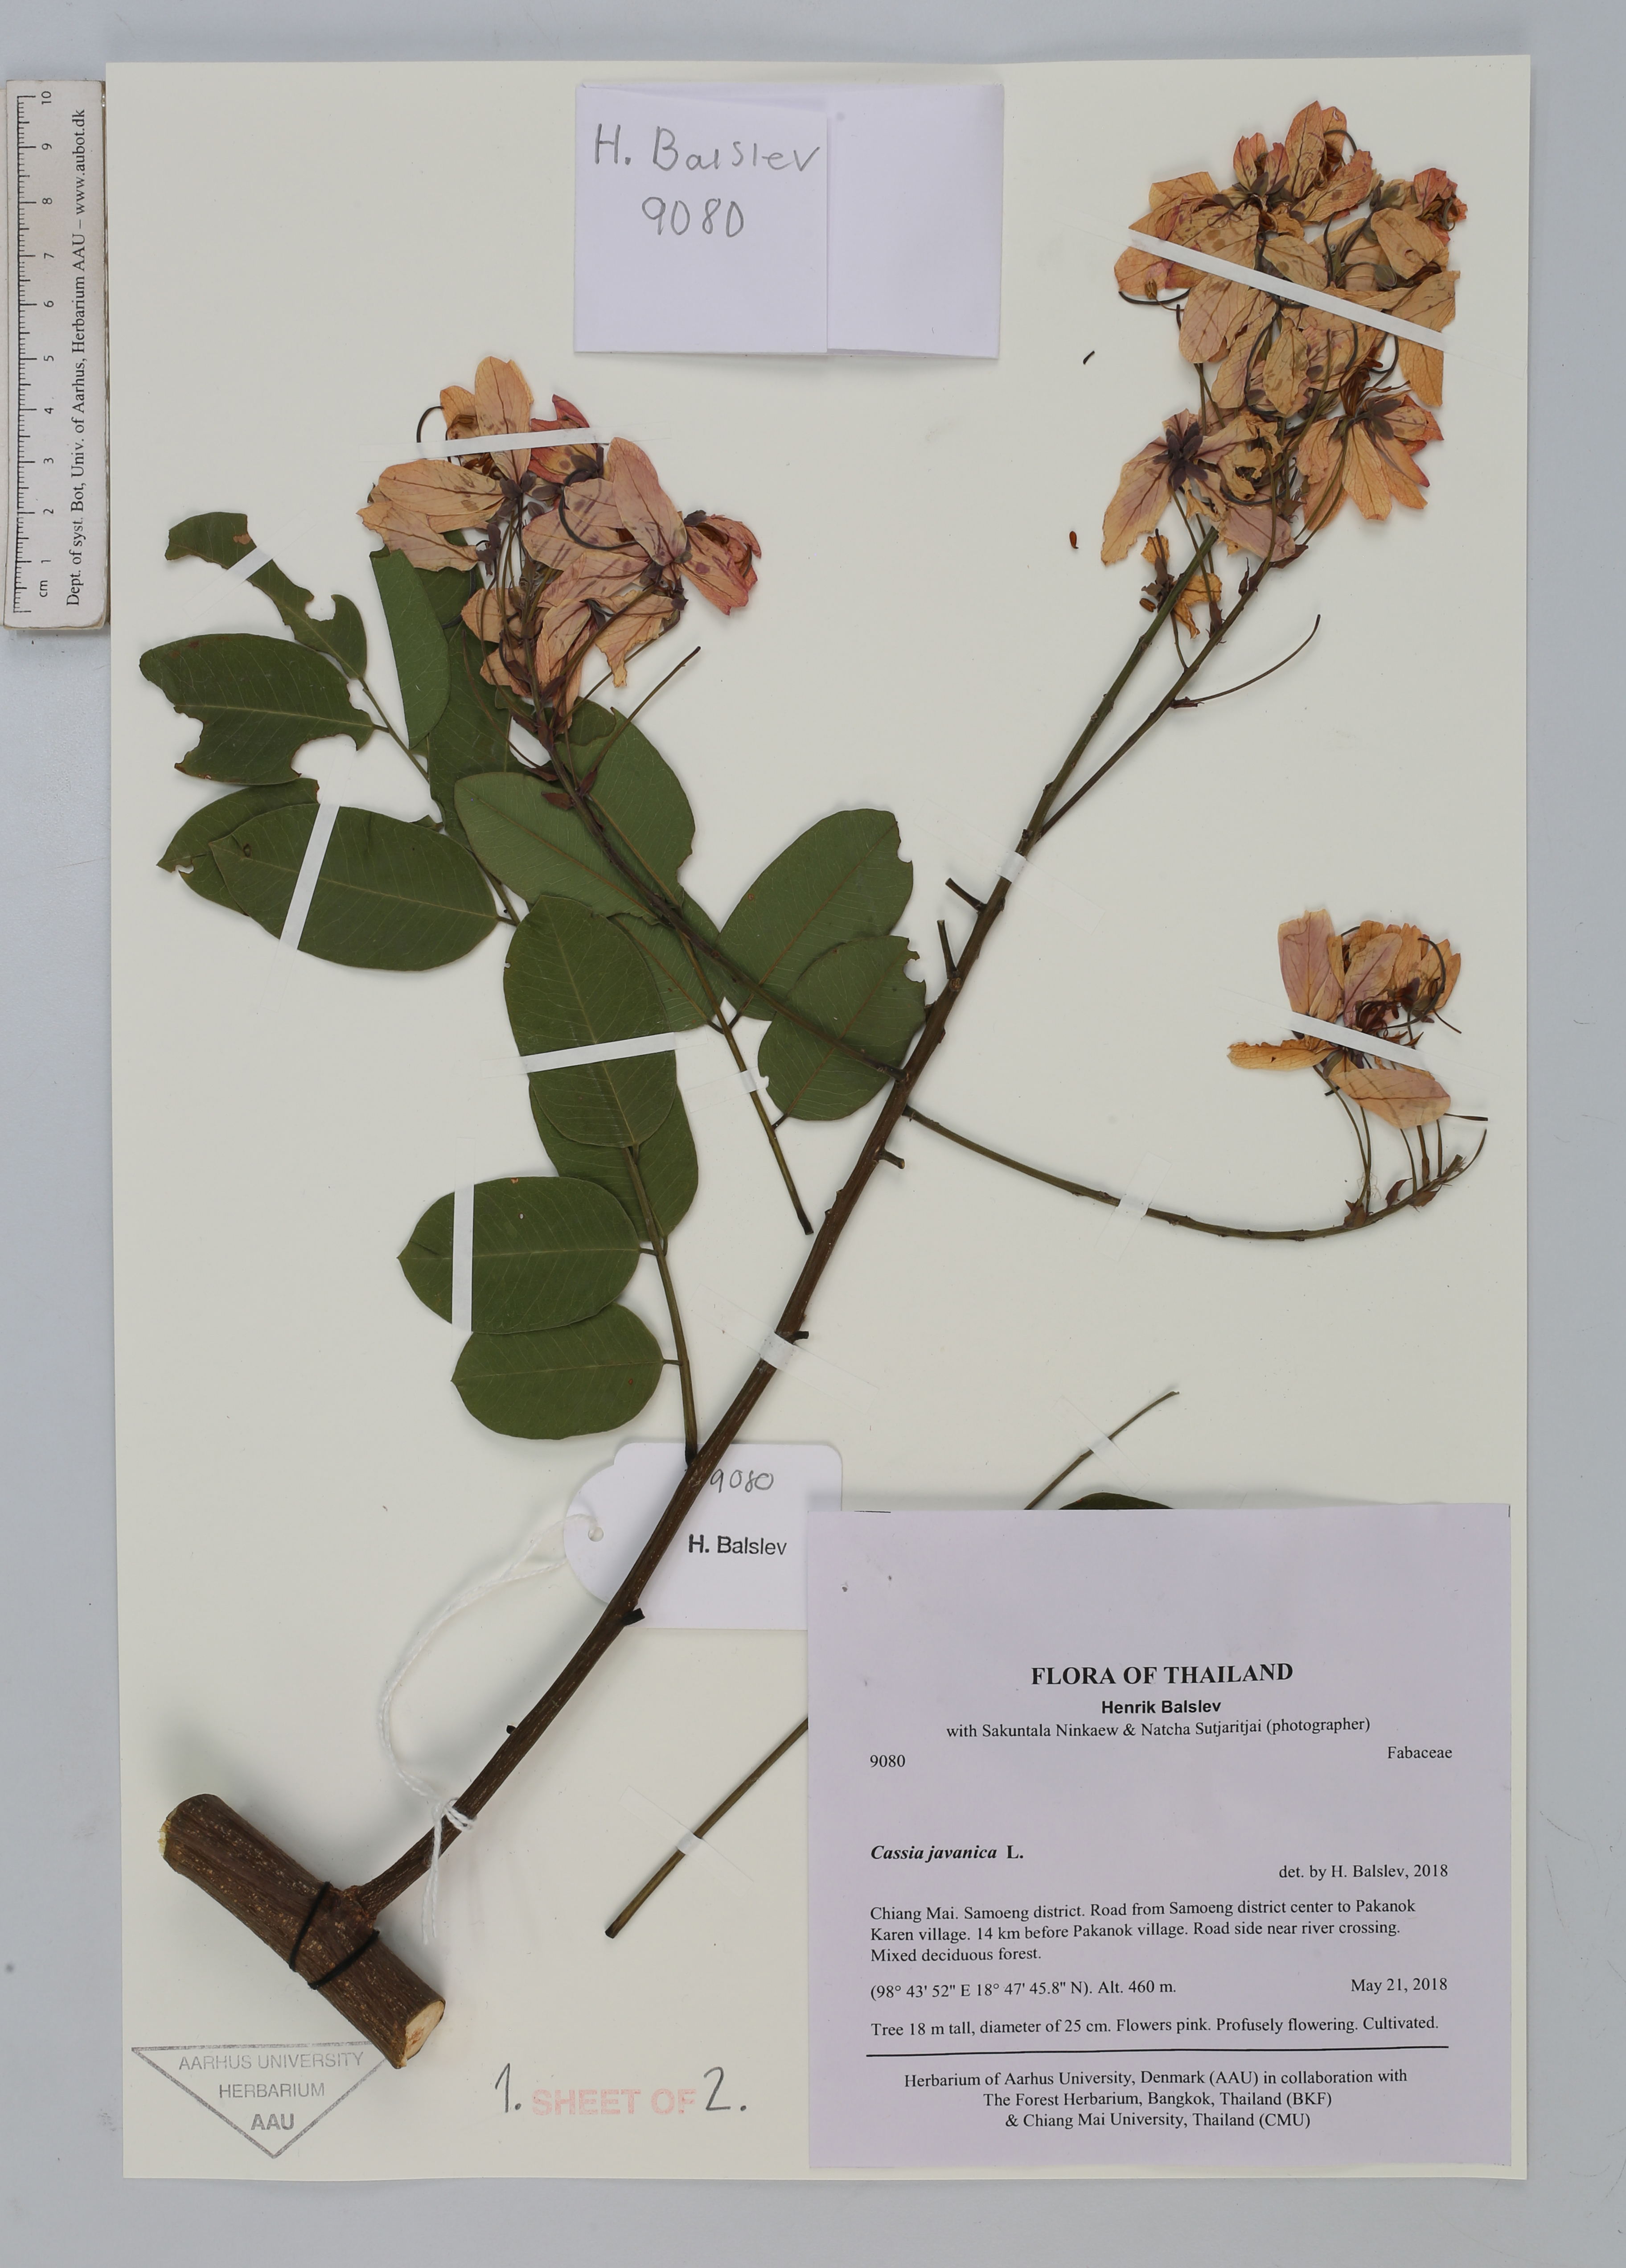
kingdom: Plantae
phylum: Tracheophyta
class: Magnoliopsida
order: Fabales
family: Fabaceae
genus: Cassia
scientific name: Cassia javanica
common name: Apple blossom
